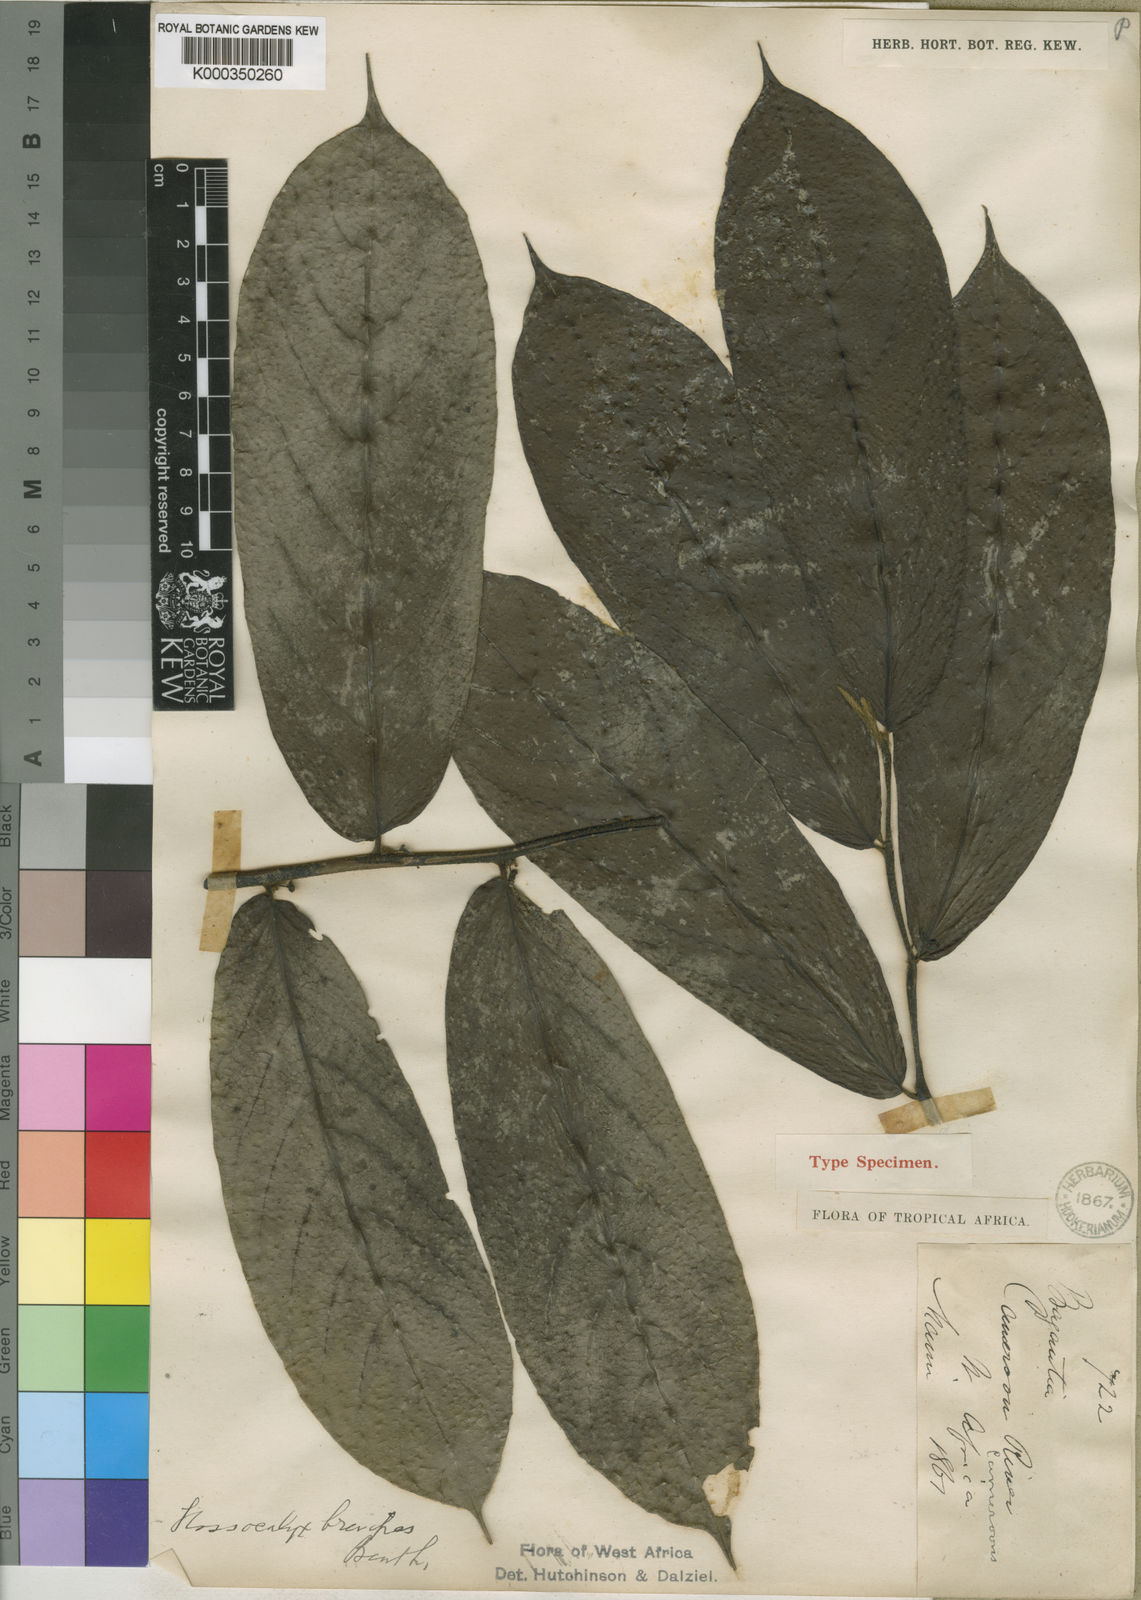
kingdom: Plantae
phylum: Tracheophyta
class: Magnoliopsida
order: Laurales
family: Siparunaceae
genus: Glossocalyx
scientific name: Glossocalyx brevipes
